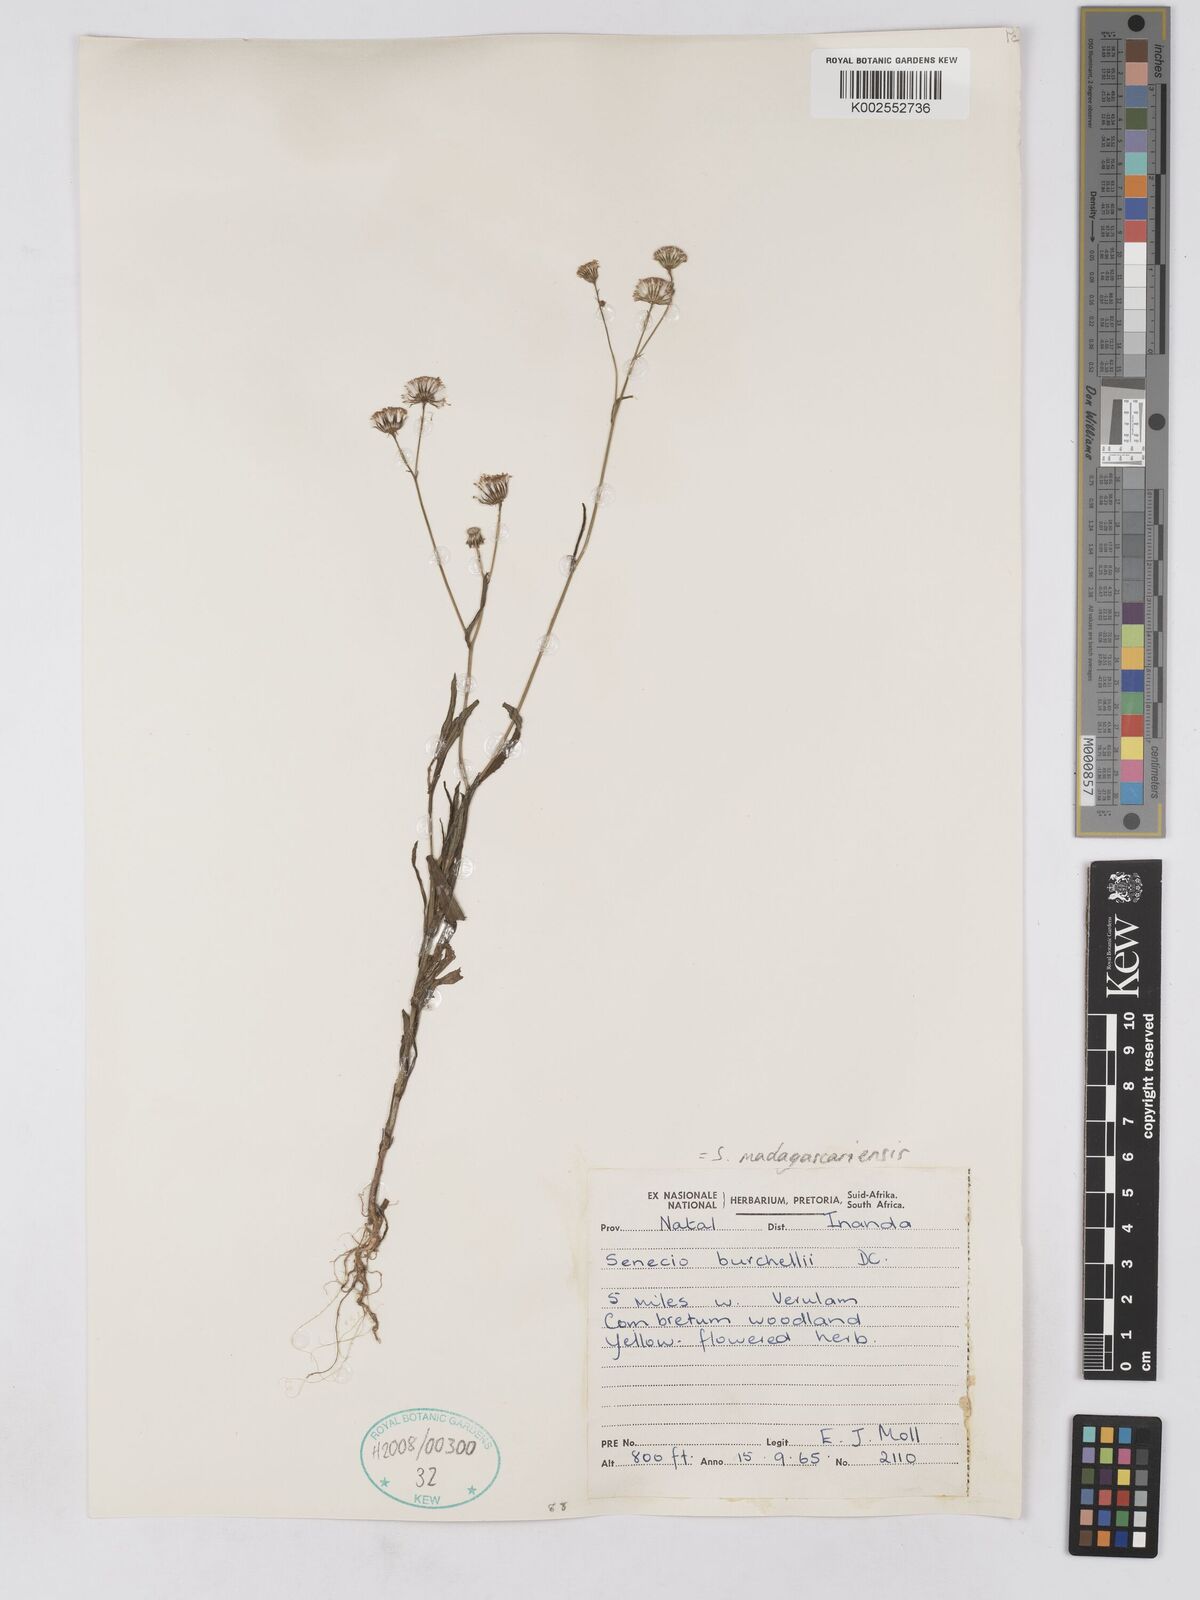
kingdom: Plantae
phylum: Tracheophyta
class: Magnoliopsida
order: Asterales
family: Asteraceae
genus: Senecio
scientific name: Senecio madagascariensis
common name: Madagascar ragwort
